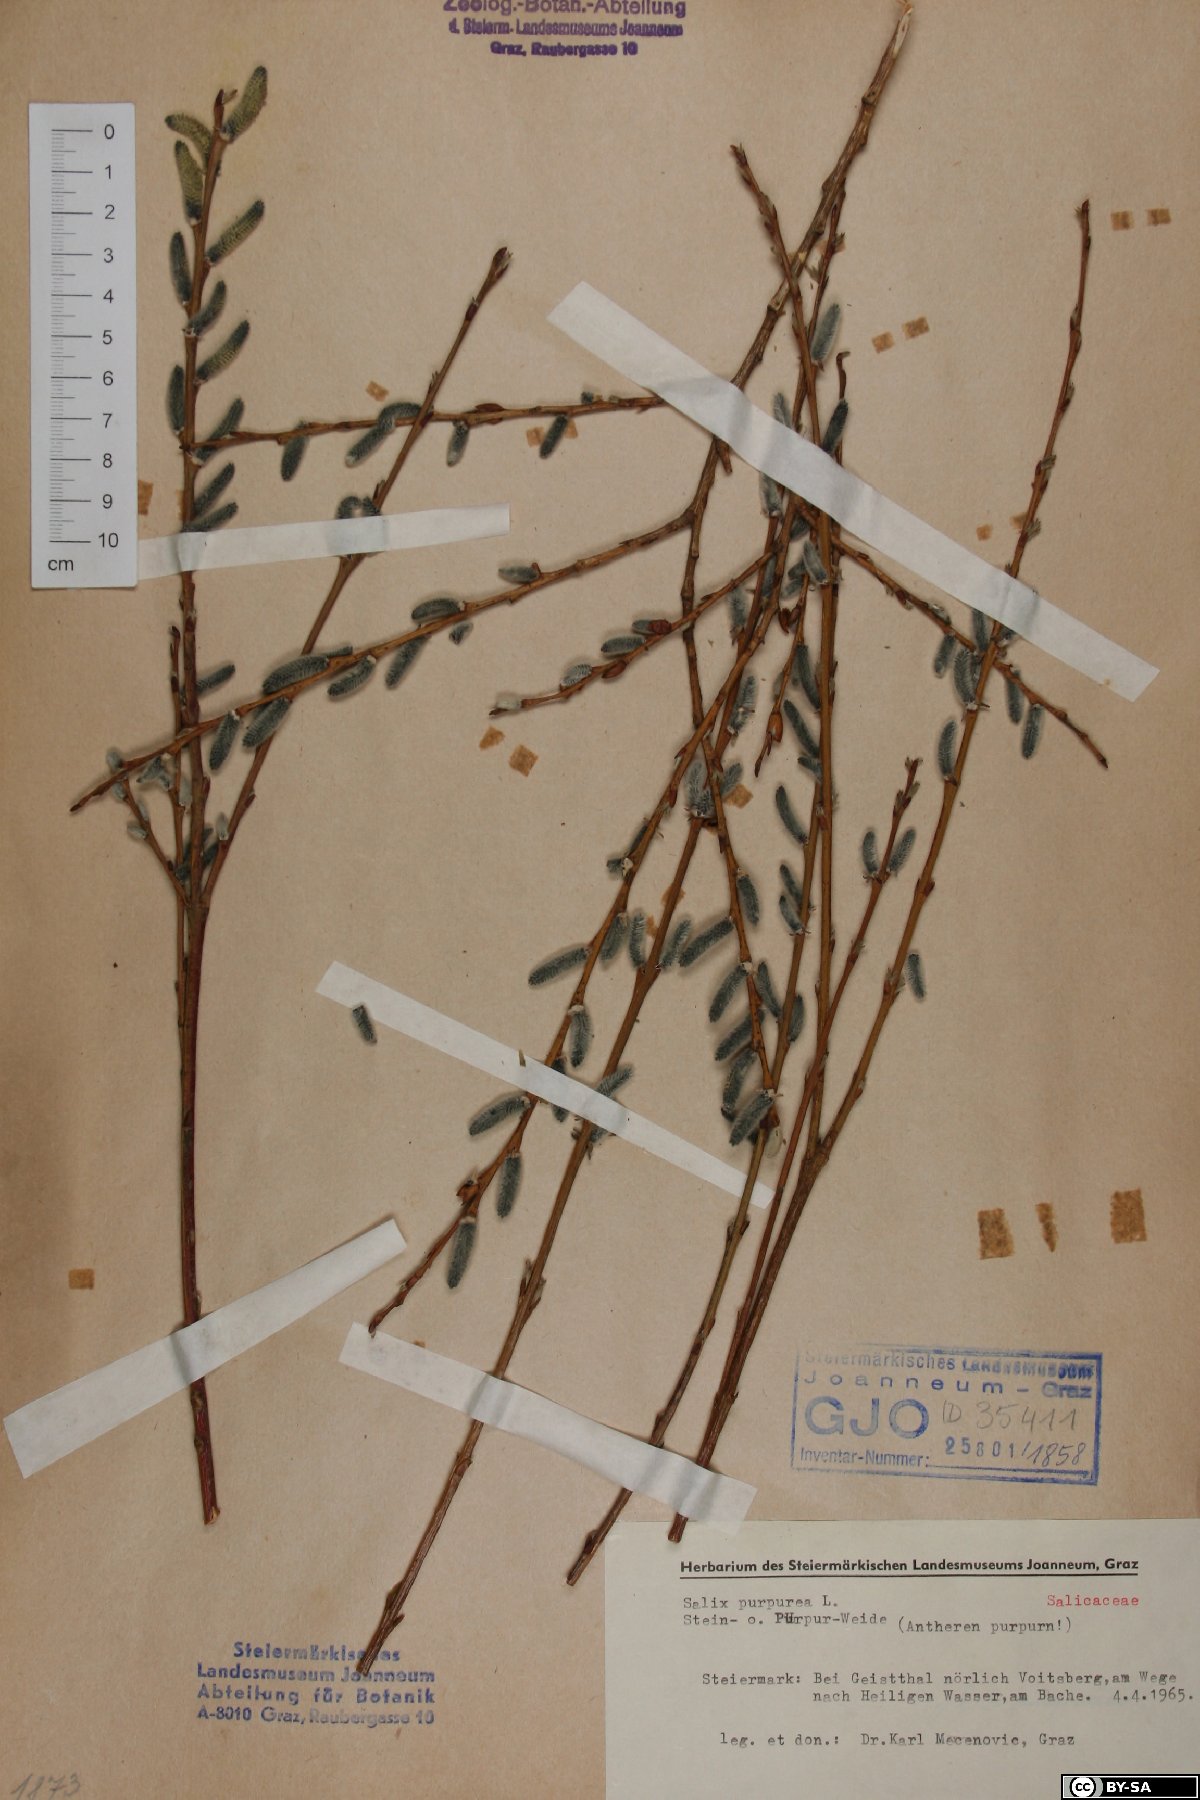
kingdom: Plantae
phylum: Tracheophyta
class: Magnoliopsida
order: Malpighiales
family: Salicaceae
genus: Salix
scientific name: Salix purpurea
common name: Purple willow
